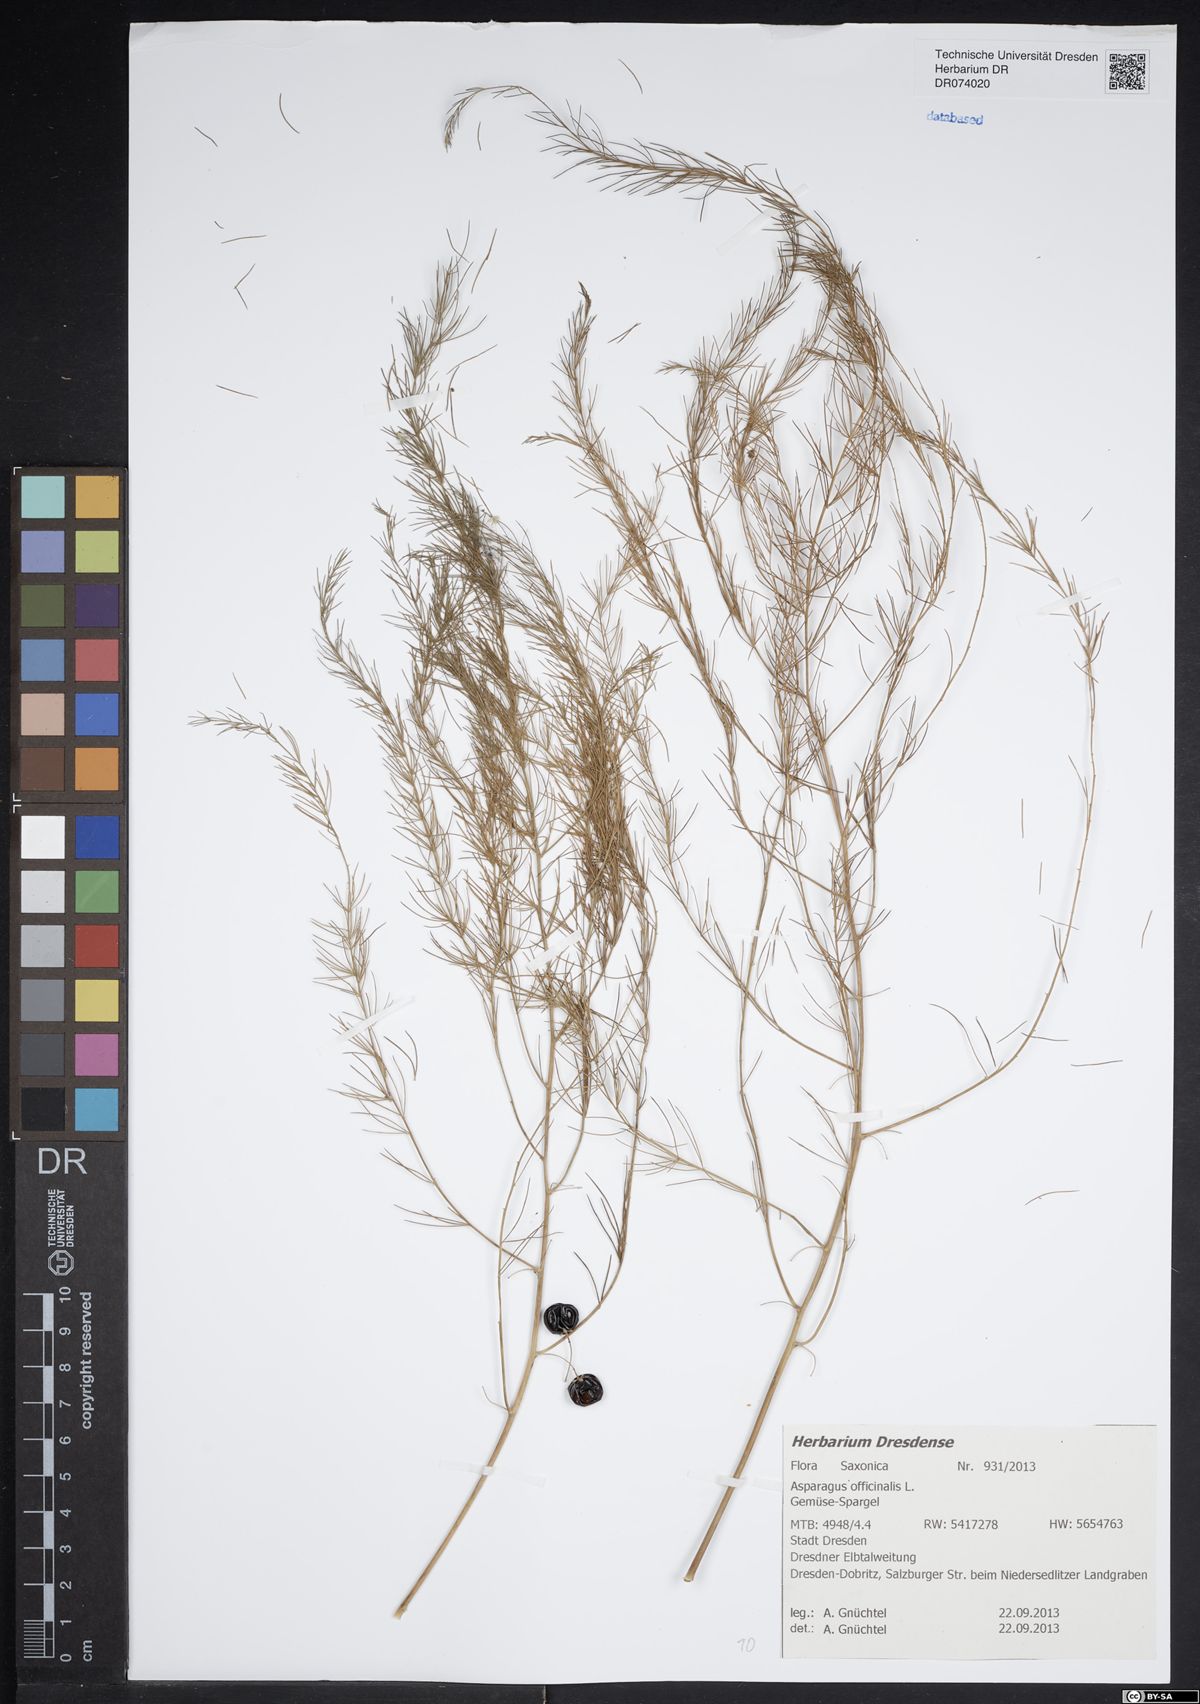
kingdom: Plantae
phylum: Tracheophyta
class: Liliopsida
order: Asparagales
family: Asparagaceae
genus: Asparagus
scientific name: Asparagus officinalis
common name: Garden asparagus
